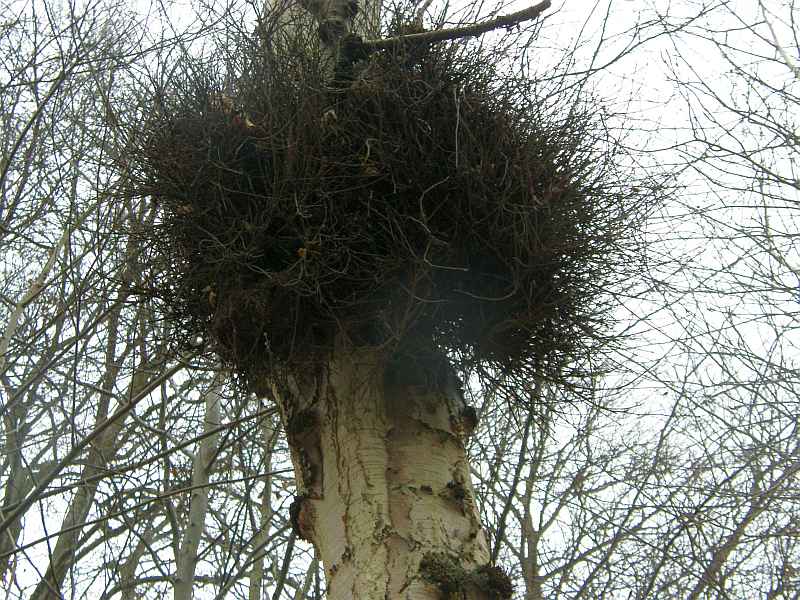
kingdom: Fungi
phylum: Ascomycota
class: Taphrinomycetes
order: Taphrinales
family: Taphrinaceae
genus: Taphrina
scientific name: Taphrina betulina
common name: hekse-sækdug
